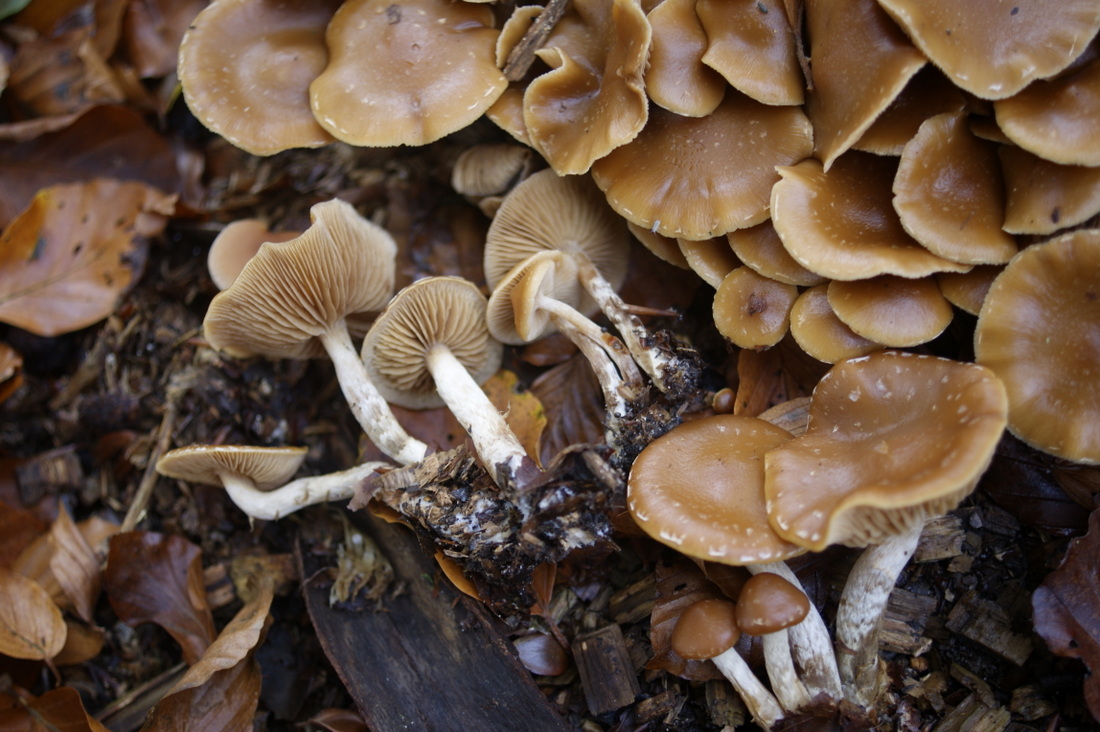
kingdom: Fungi
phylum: Basidiomycota
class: Agaricomycetes
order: Agaricales
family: Hymenogastraceae
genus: Galerina
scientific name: Galerina sideroides
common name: træflis-hjelmhat
